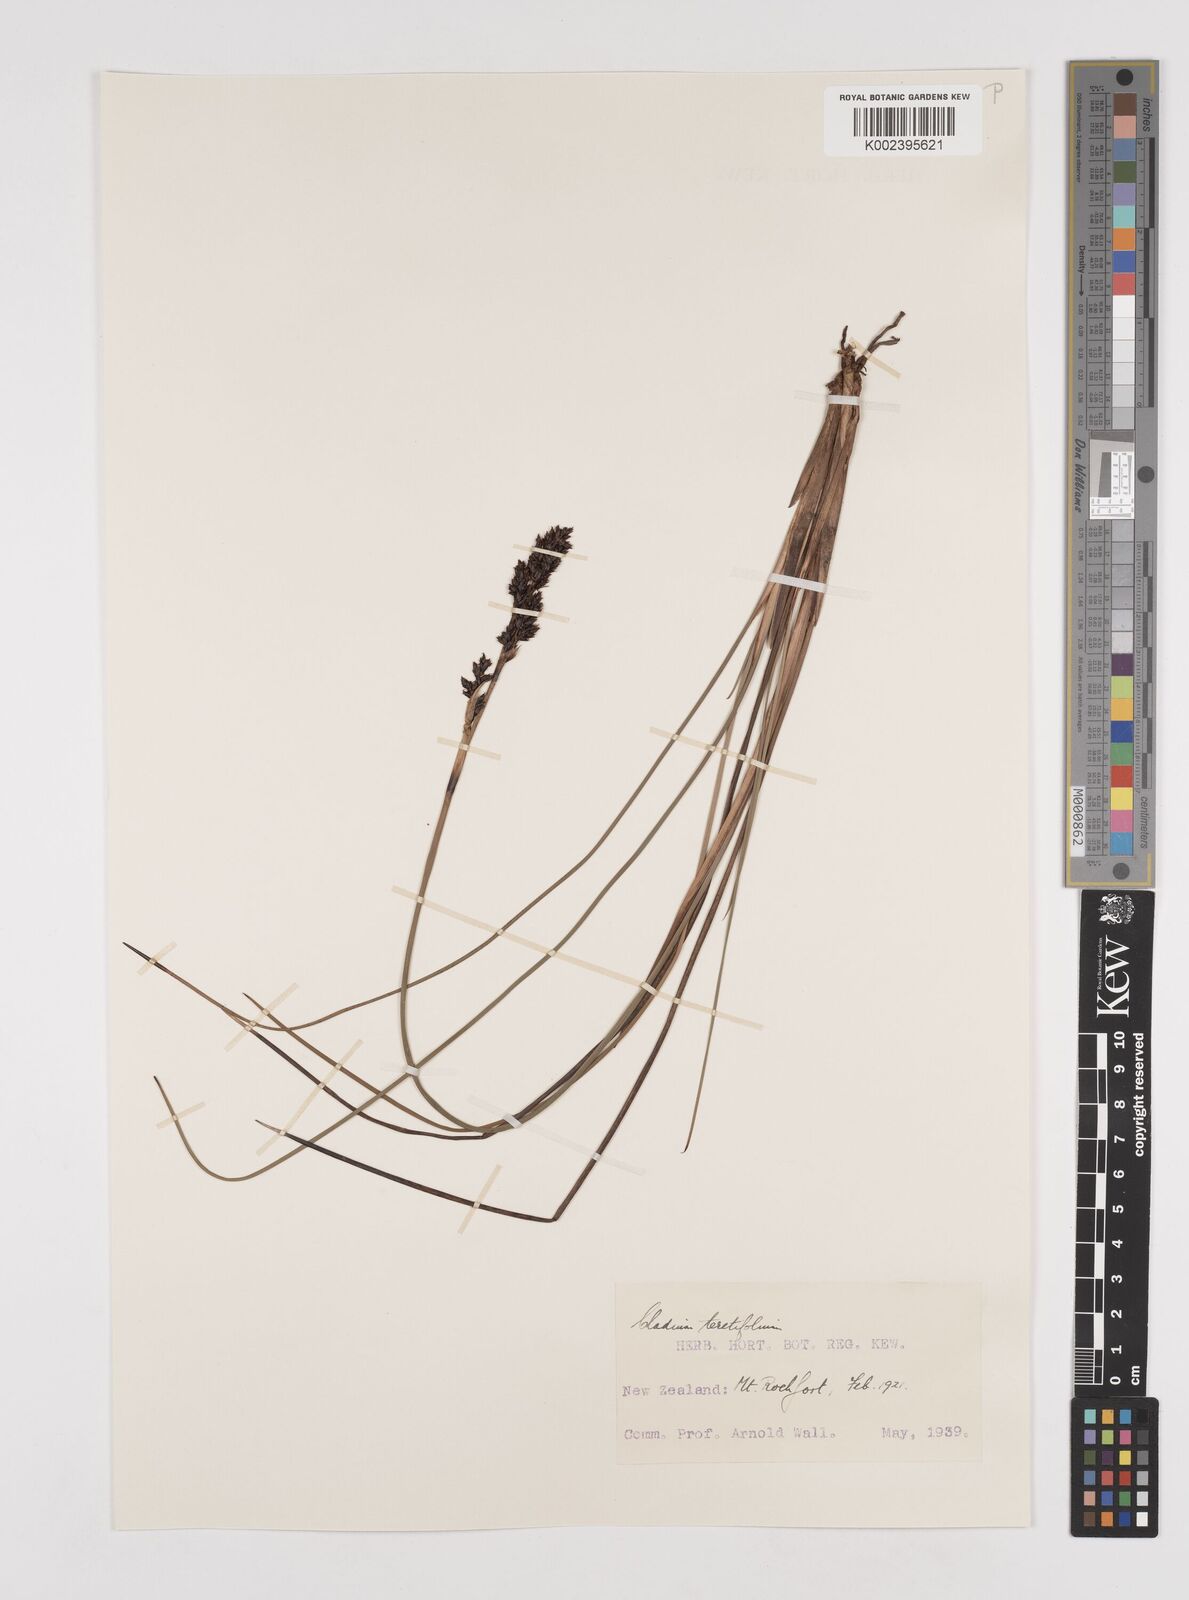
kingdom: Plantae
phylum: Tracheophyta
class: Liliopsida
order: Poales
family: Cyperaceae
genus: Machaerina
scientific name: Machaerina teretifolia
